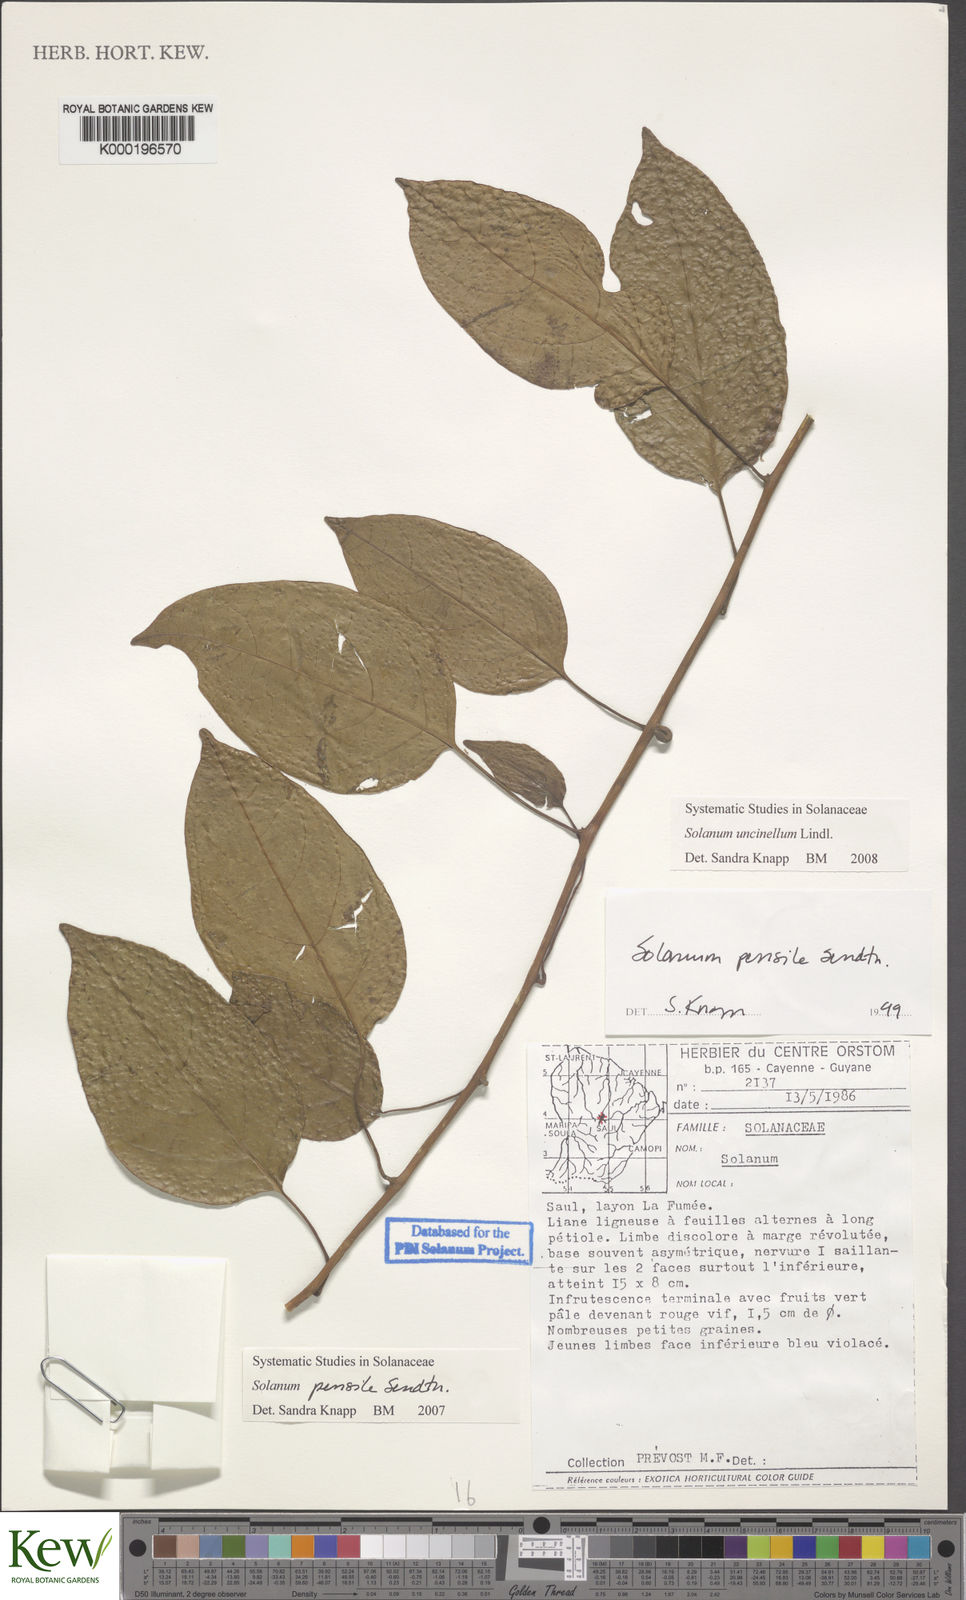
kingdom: Plantae
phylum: Tracheophyta
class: Magnoliopsida
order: Solanales
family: Solanaceae
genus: Solanum
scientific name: Solanum uncinellum
